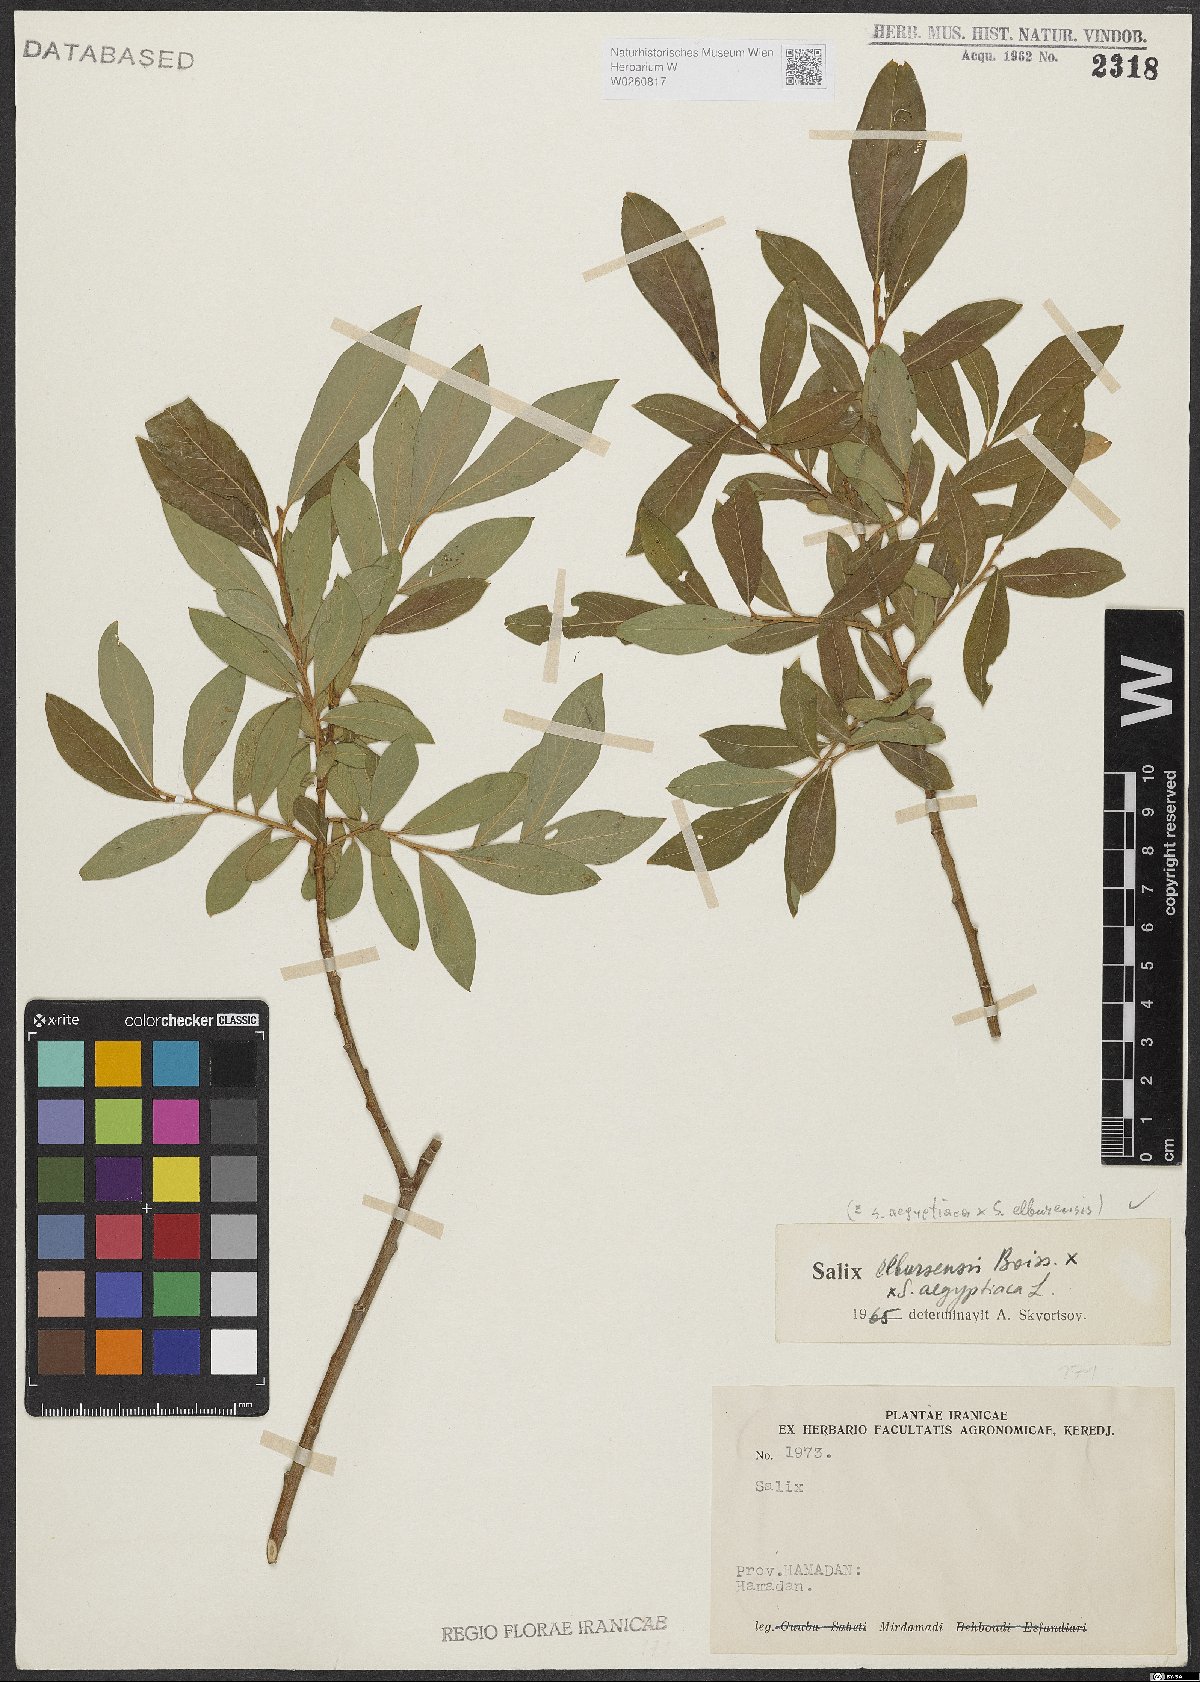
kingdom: Plantae
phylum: Tracheophyta
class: Magnoliopsida
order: Malpighiales
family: Salicaceae
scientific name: Salicaceae
